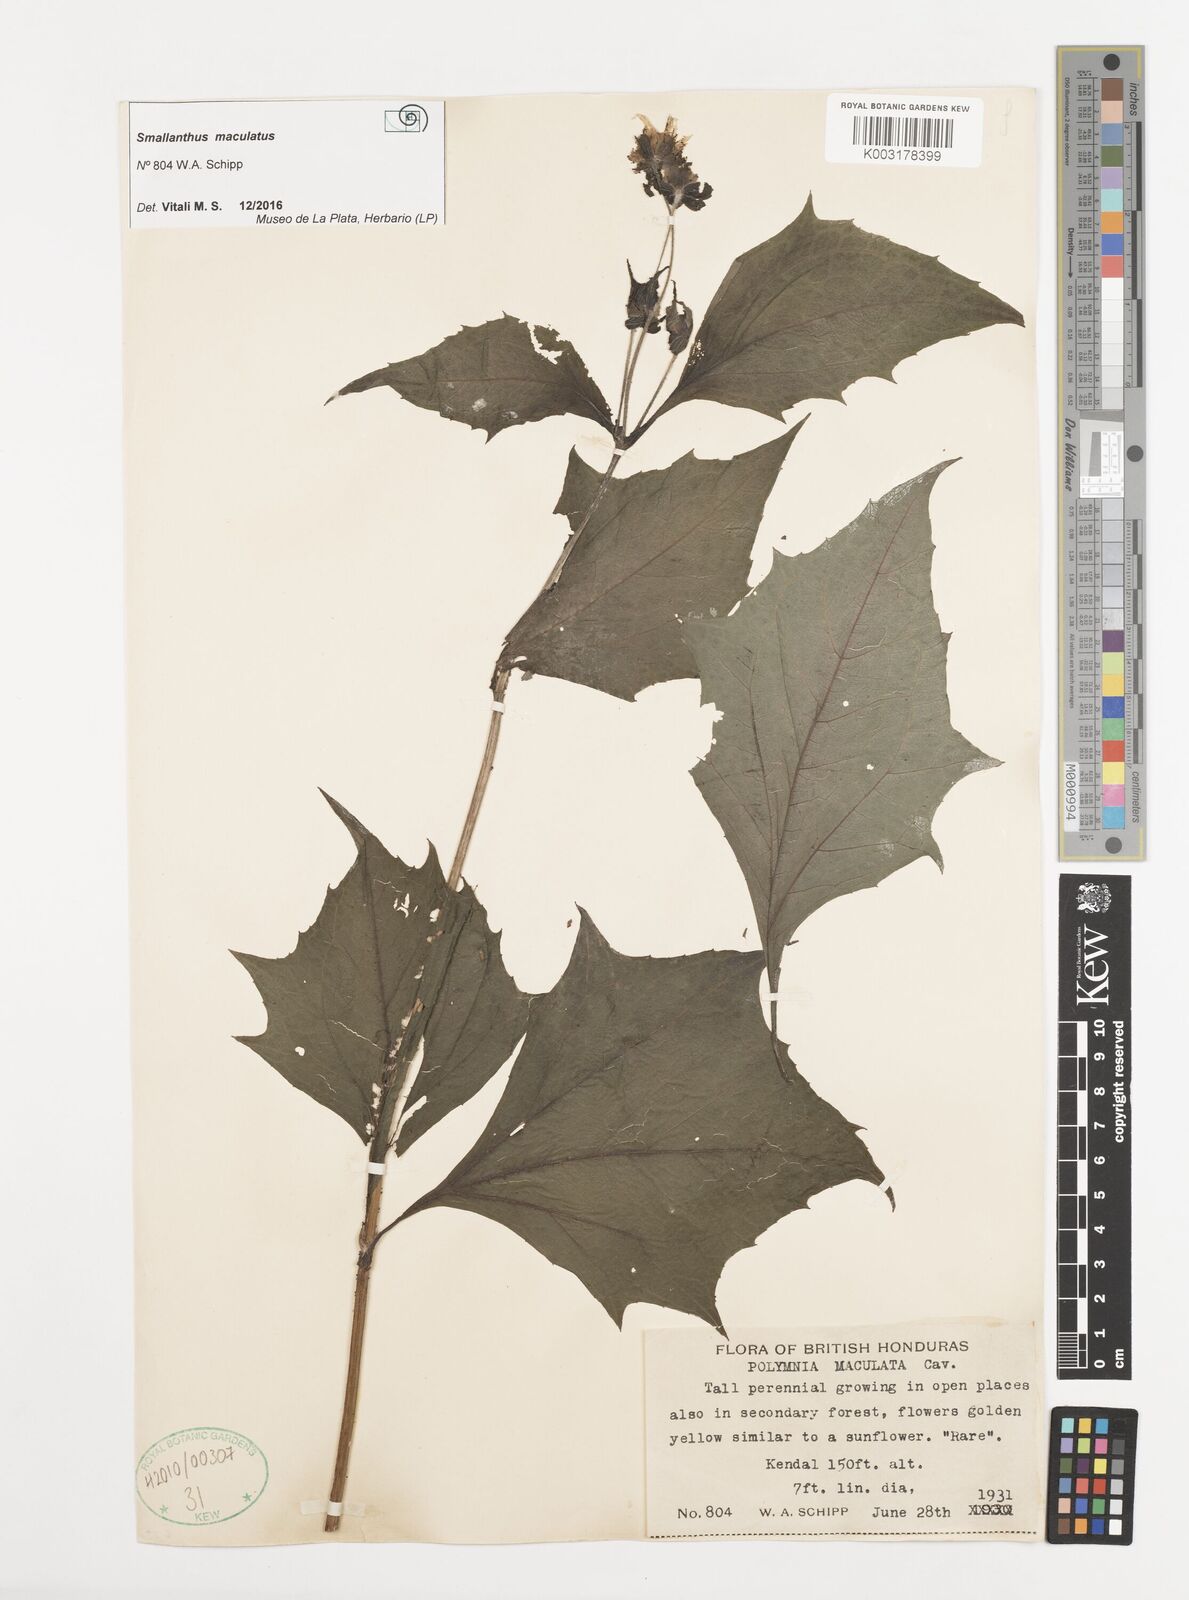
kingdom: Plantae
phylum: Tracheophyta
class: Magnoliopsida
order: Asterales
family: Asteraceae
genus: Smallanthus
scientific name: Smallanthus maculatus
